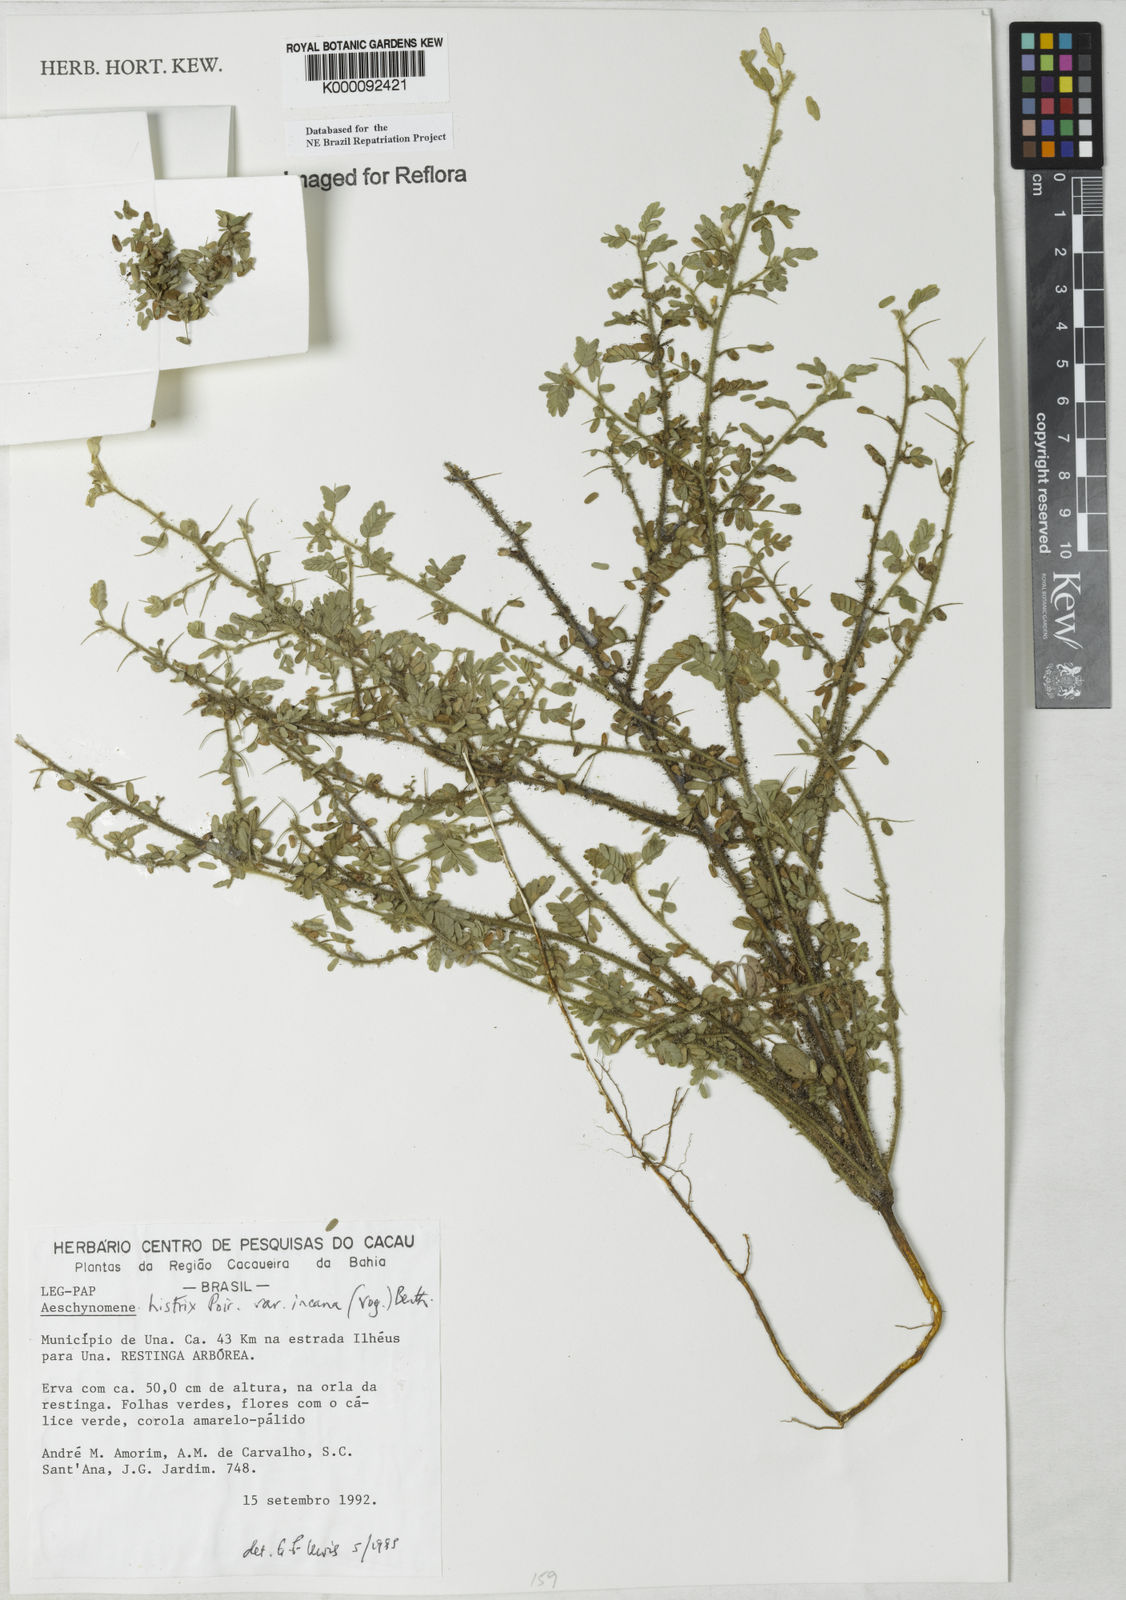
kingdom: Plantae
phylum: Tracheophyta
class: Magnoliopsida
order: Fabales
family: Fabaceae
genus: Ctenodon
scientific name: Ctenodon histrix
